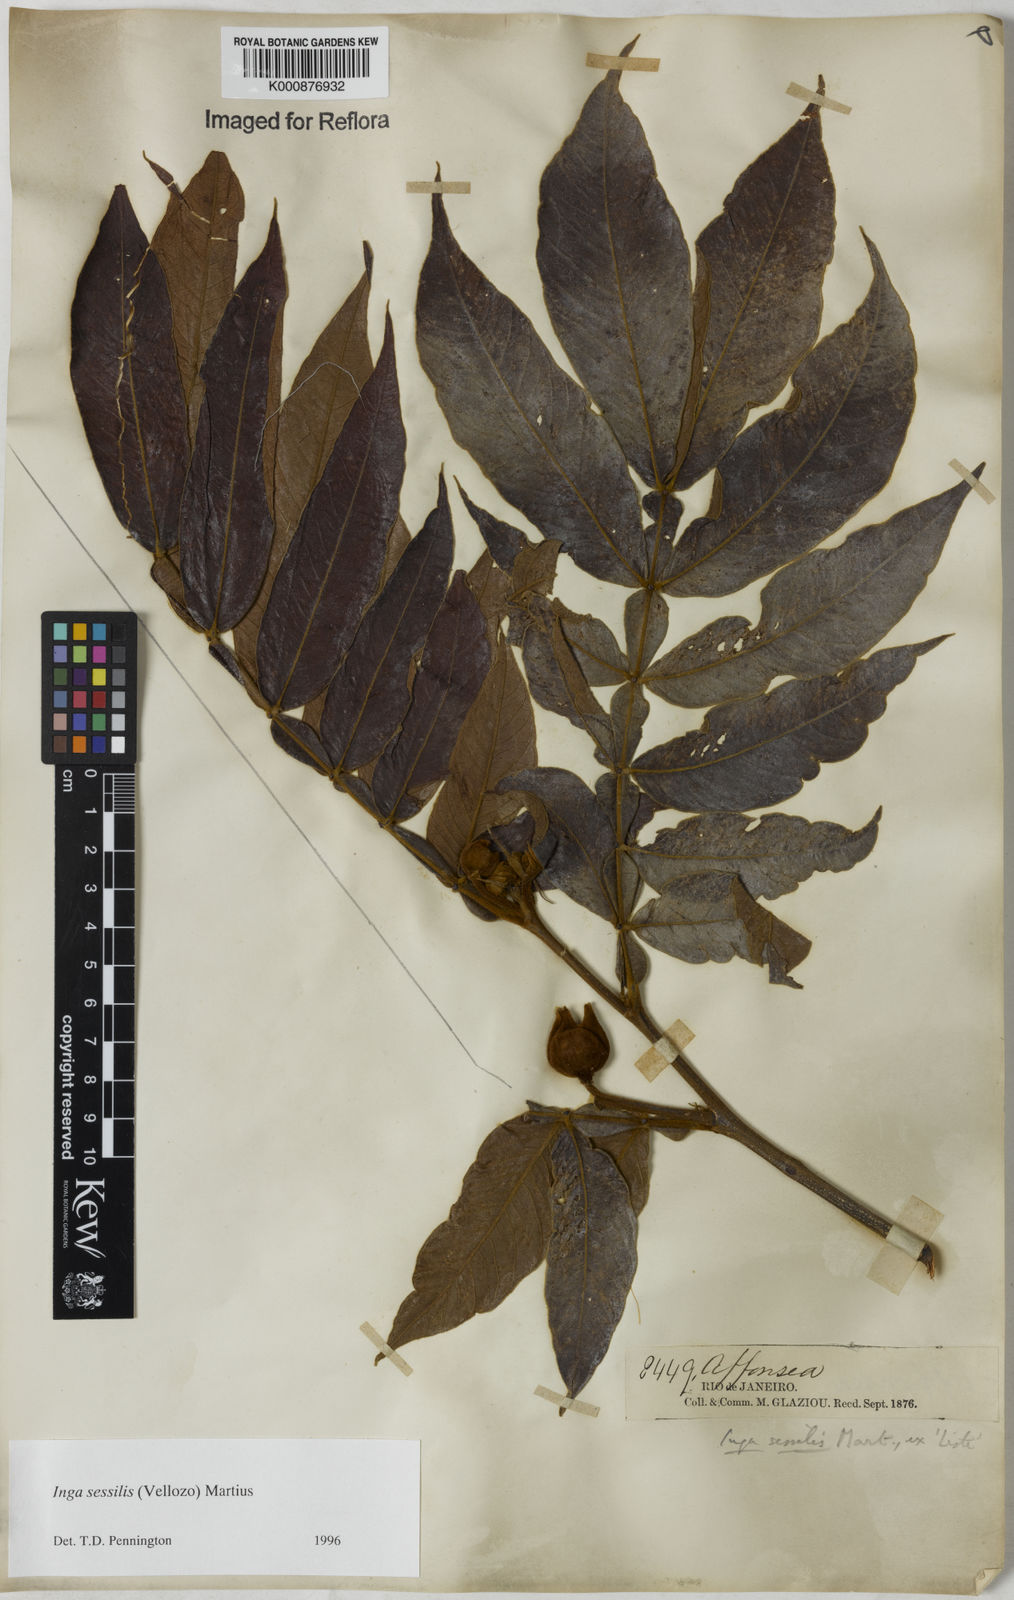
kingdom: Plantae
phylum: Tracheophyta
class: Magnoliopsida
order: Fabales
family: Fabaceae
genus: Inga
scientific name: Inga sessilis
